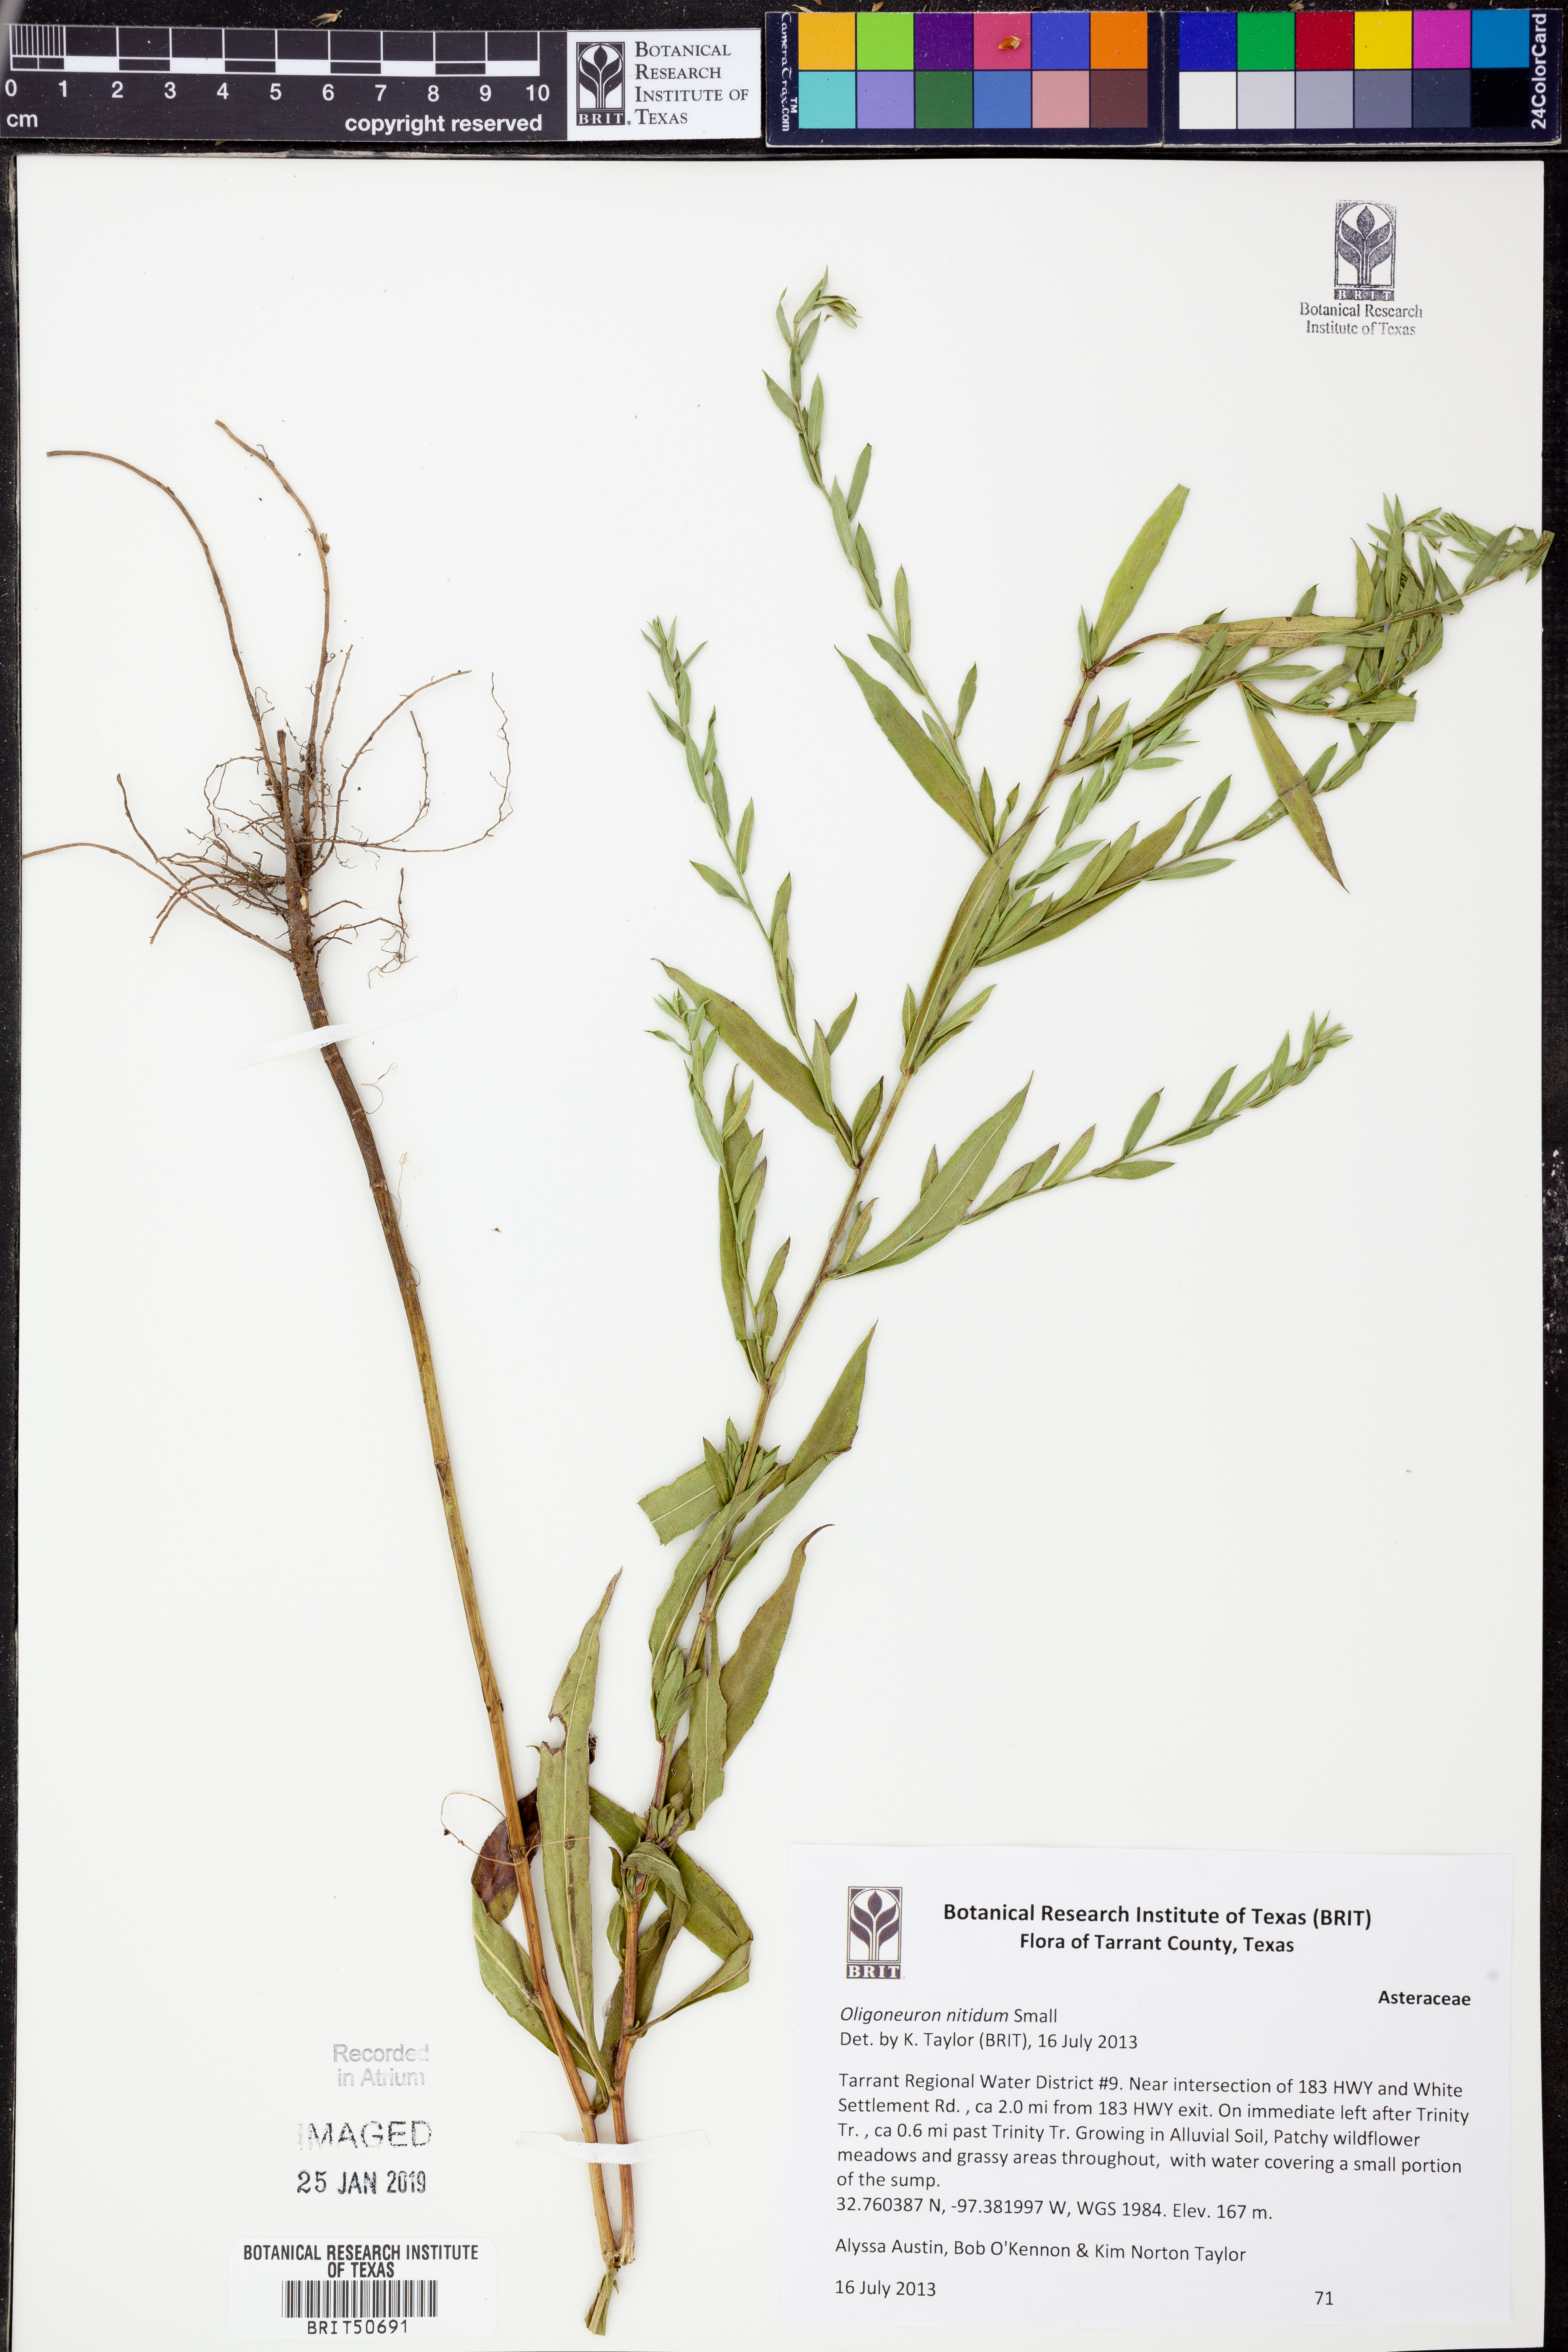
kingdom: Plantae
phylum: Tracheophyta
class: Magnoliopsida
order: Asterales
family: Asteraceae
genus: Solidago
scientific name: Solidago nitida
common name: Shiny goldenrod
